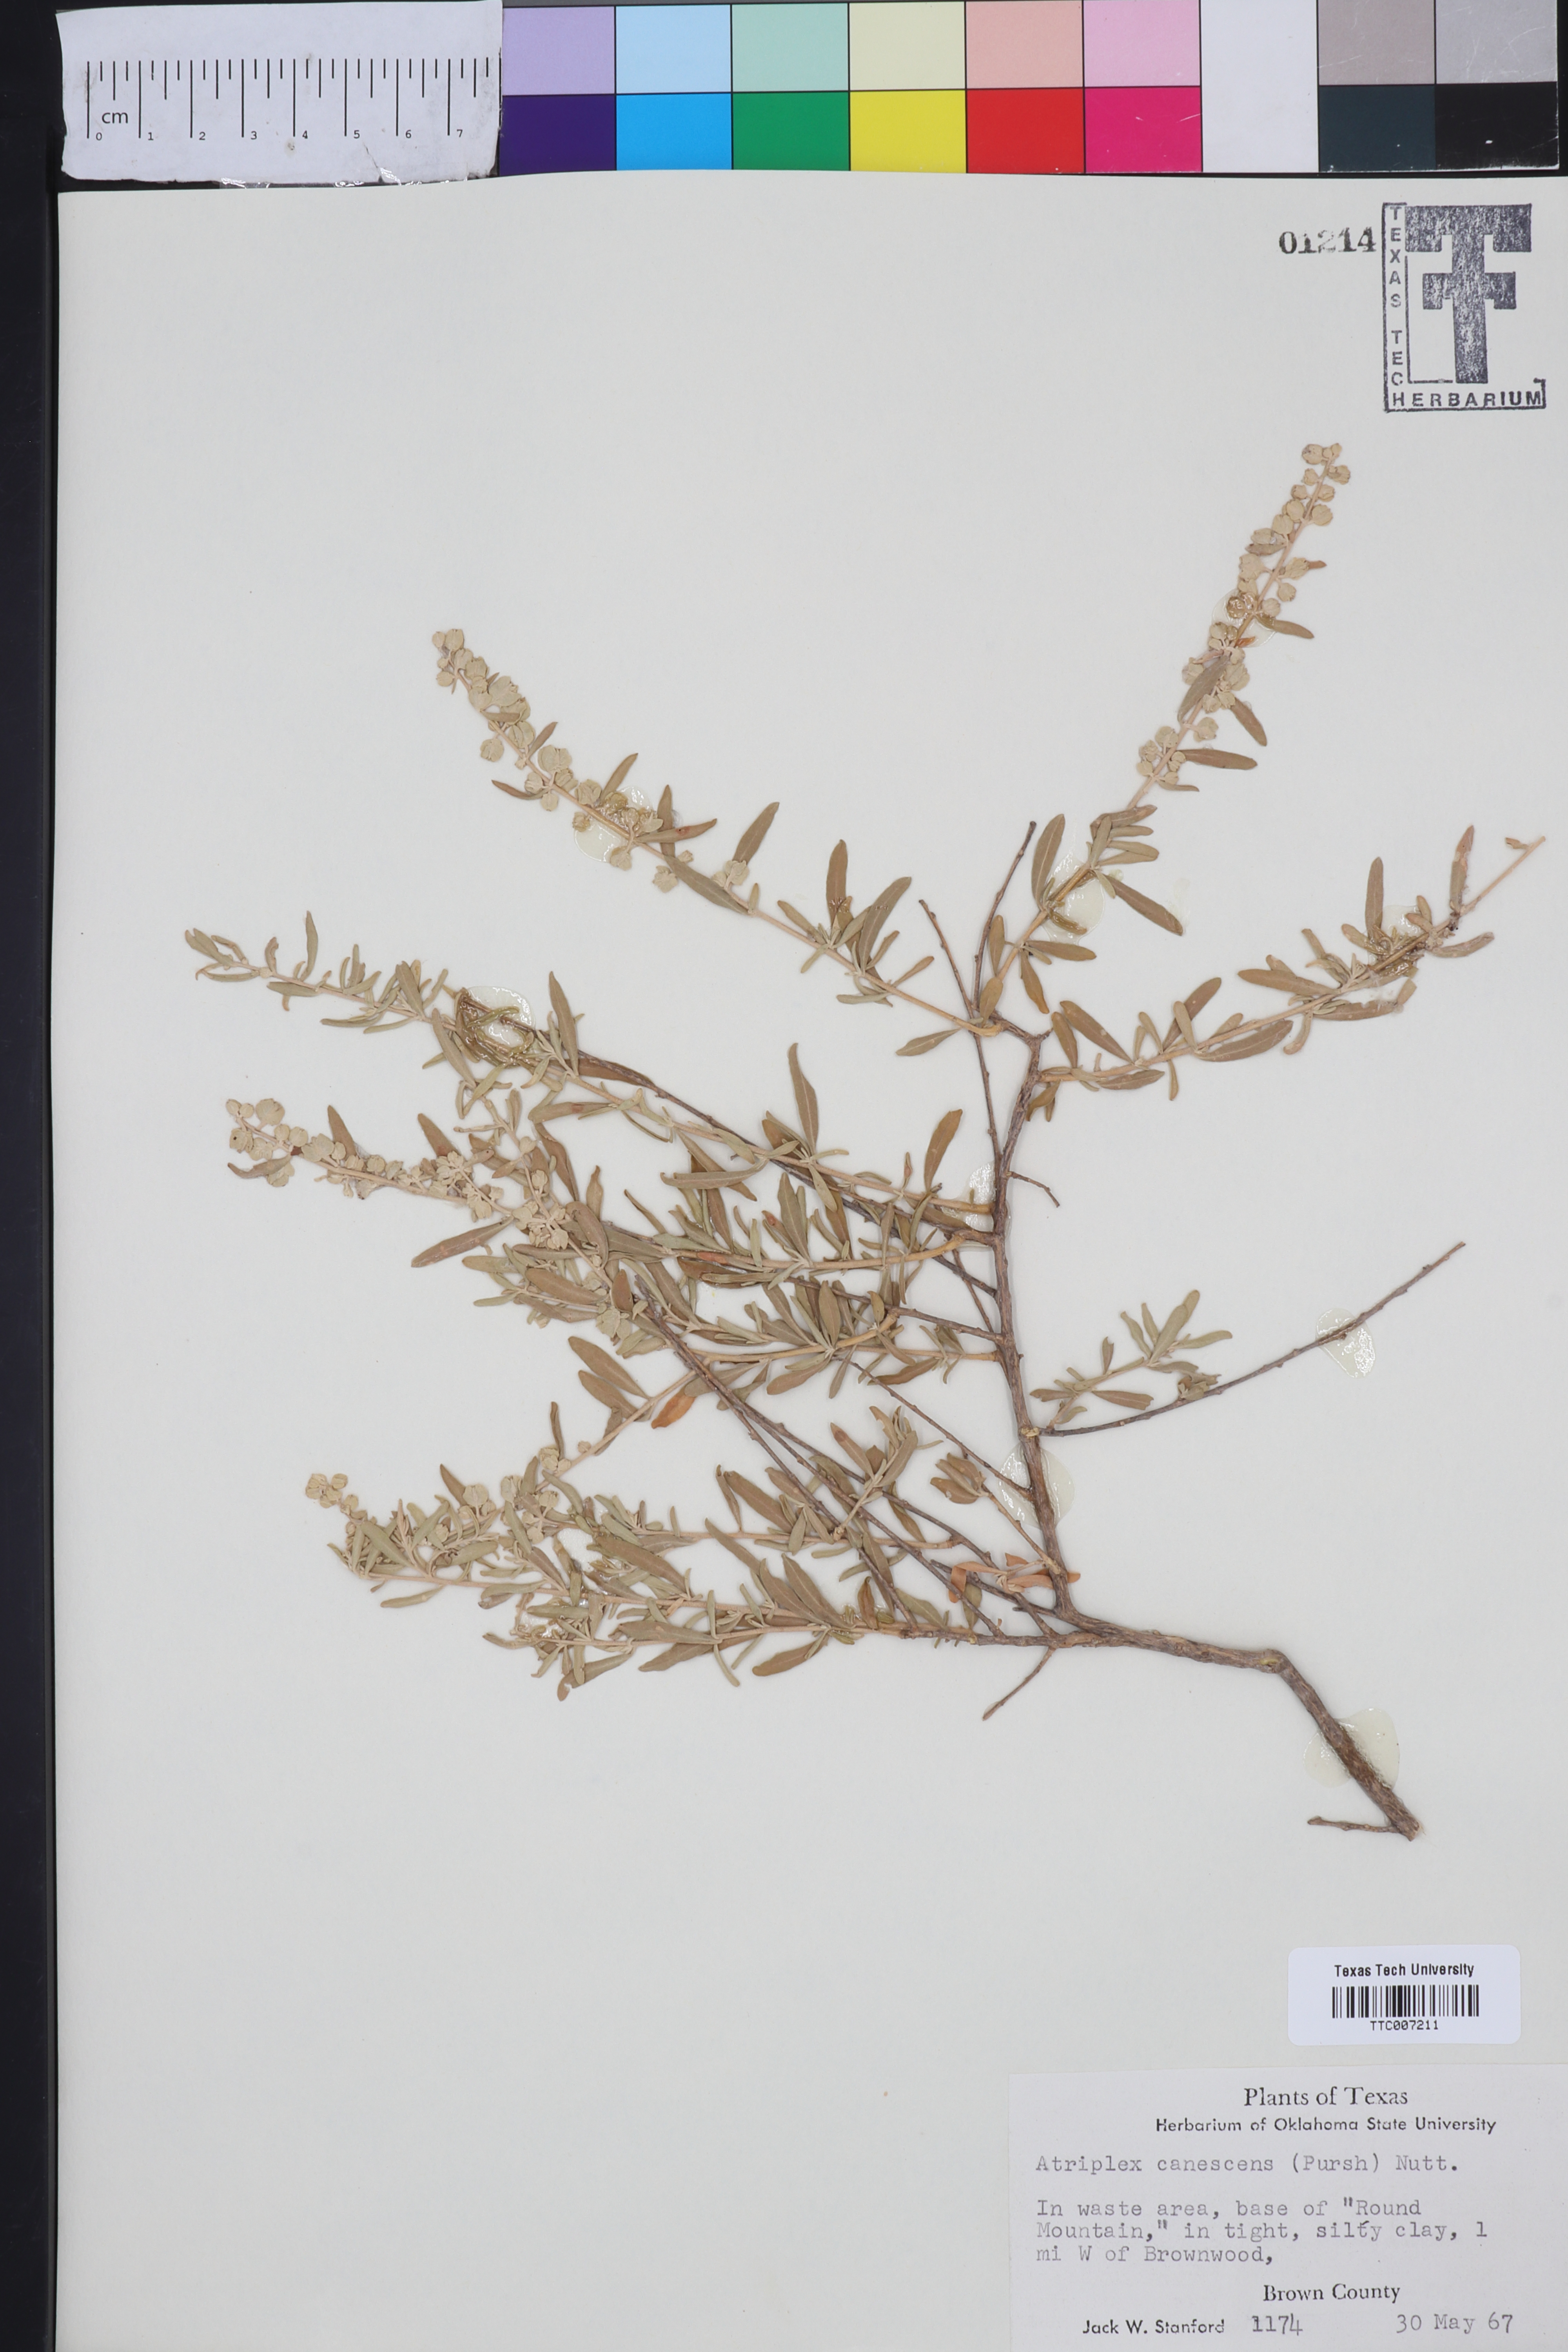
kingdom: Plantae
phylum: Tracheophyta
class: Magnoliopsida
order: Caryophyllales
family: Amaranthaceae
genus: Atriplex
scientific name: Atriplex canescens
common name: Four-wing saltbush
